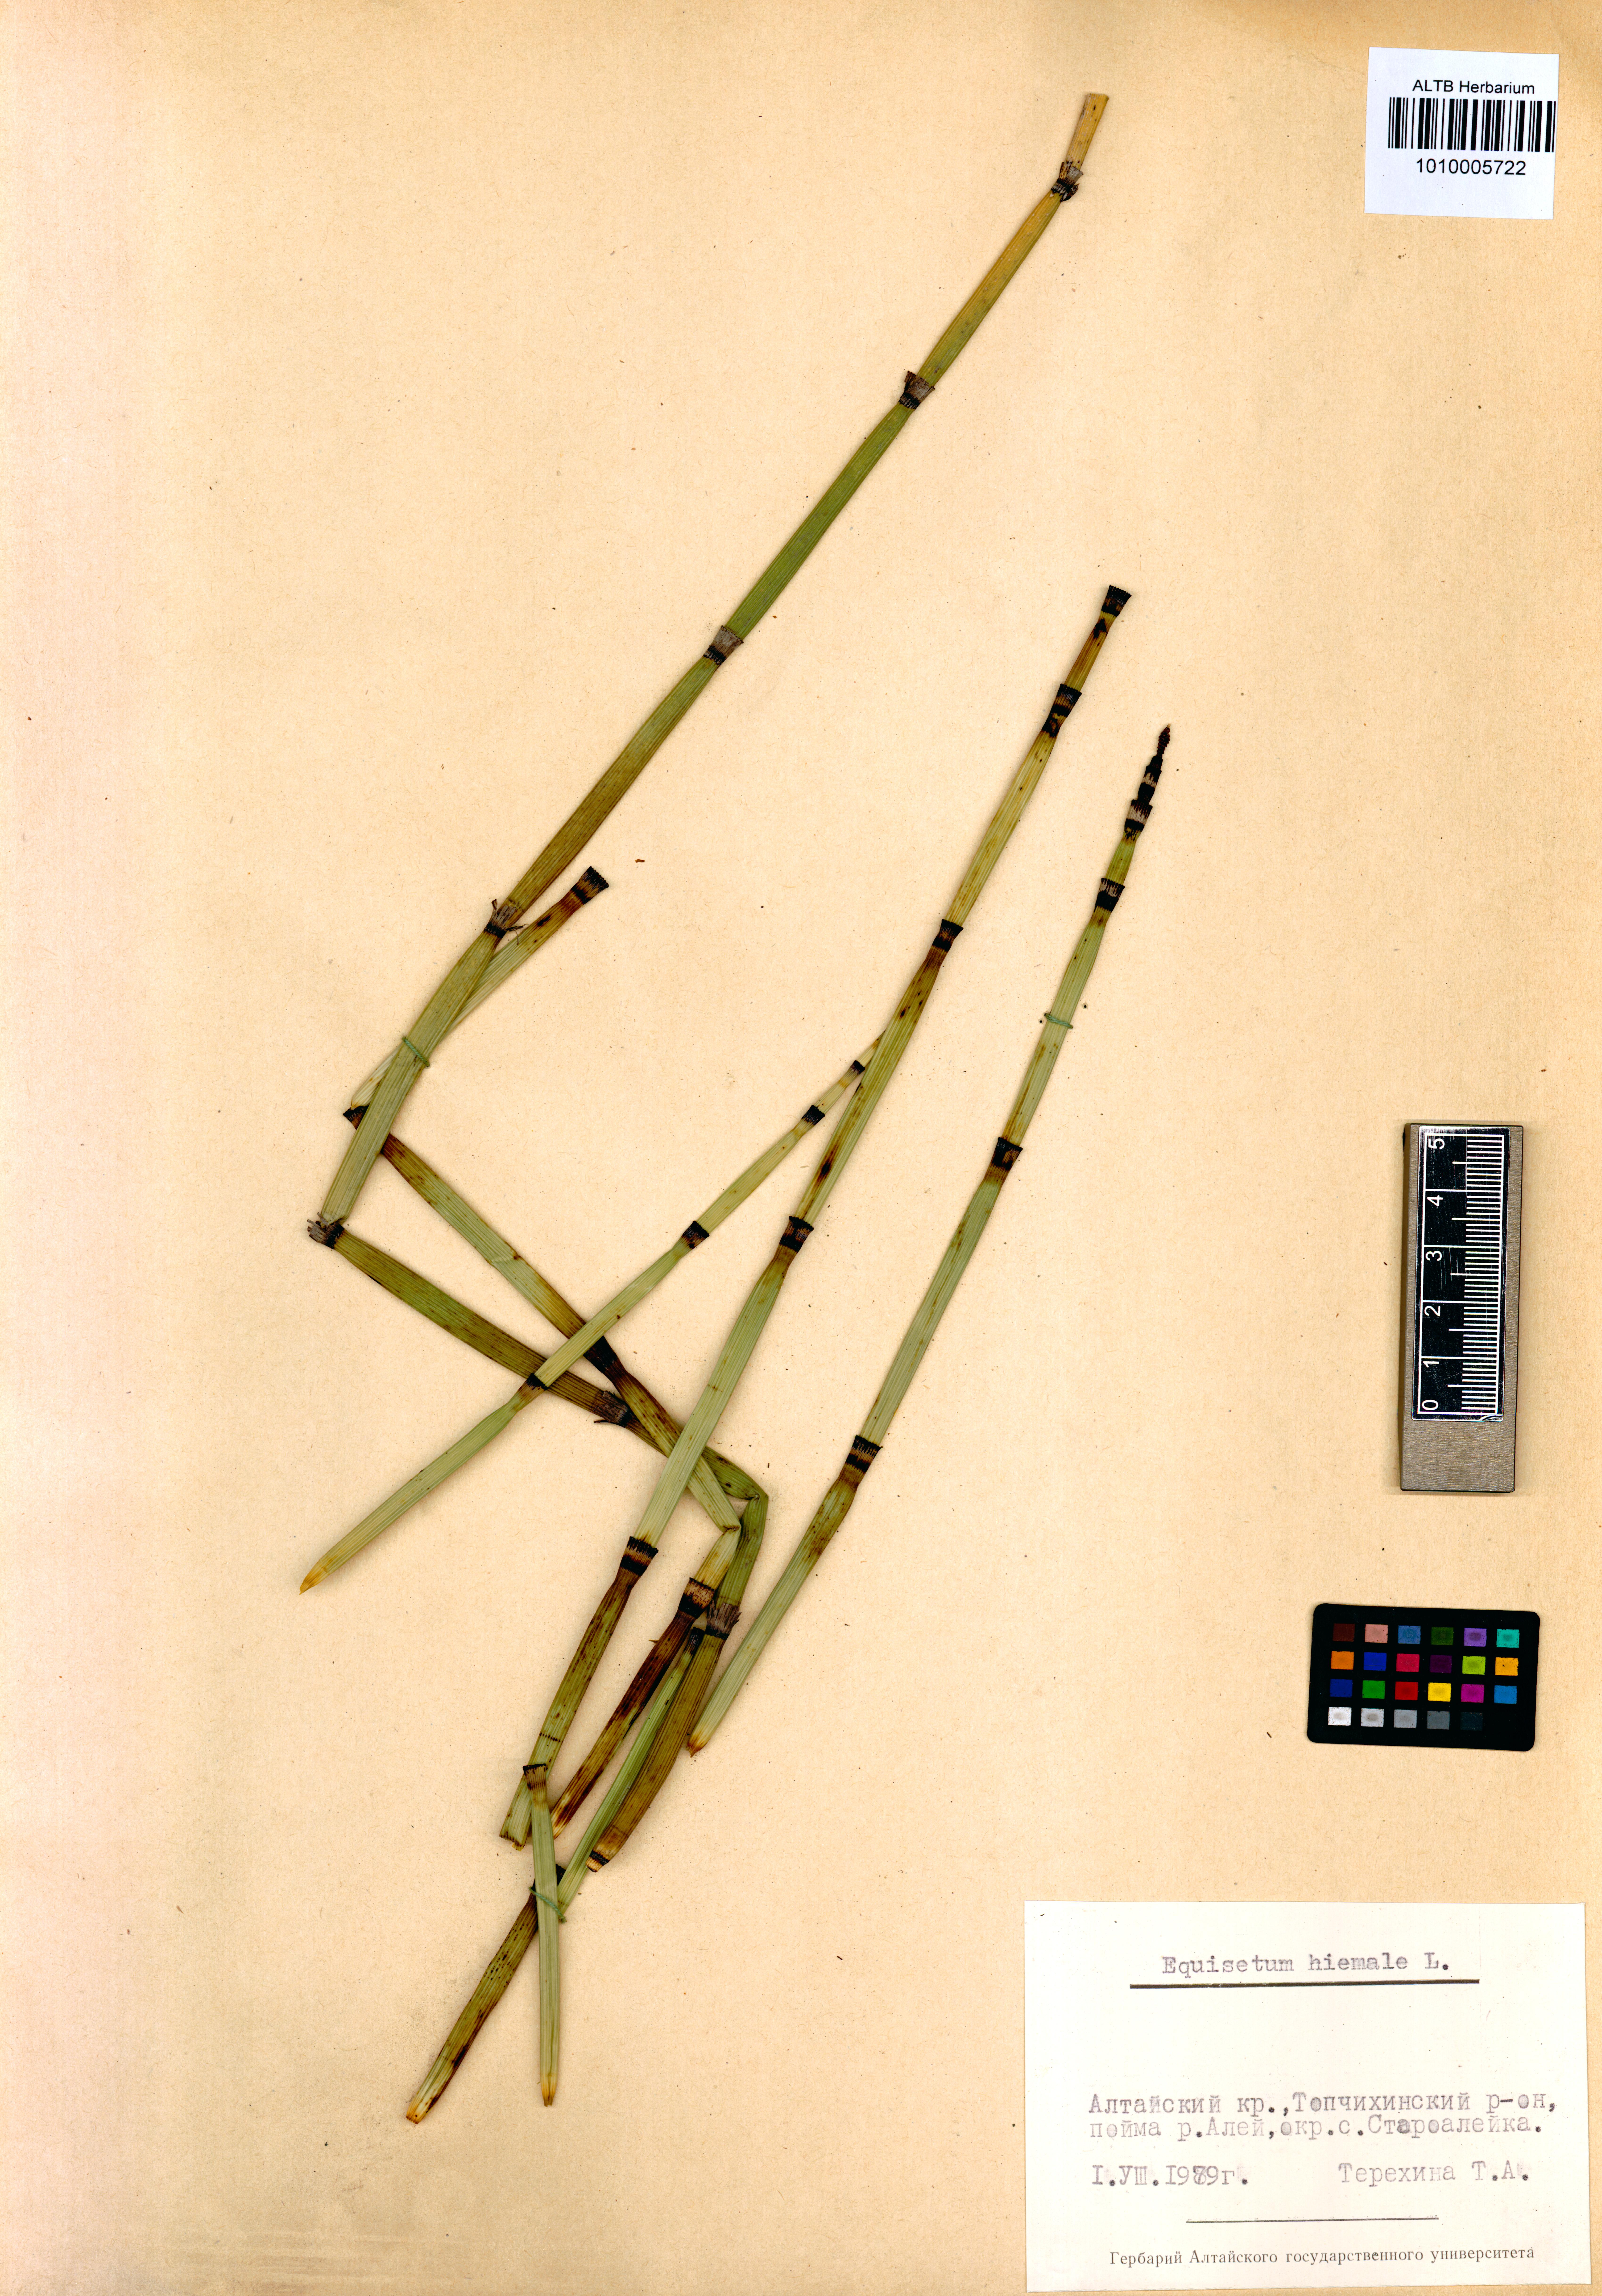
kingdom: Plantae
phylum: Tracheophyta
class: Polypodiopsida
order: Equisetales
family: Equisetaceae
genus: Equisetum
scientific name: Equisetum hyemale
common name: Rough horsetail
